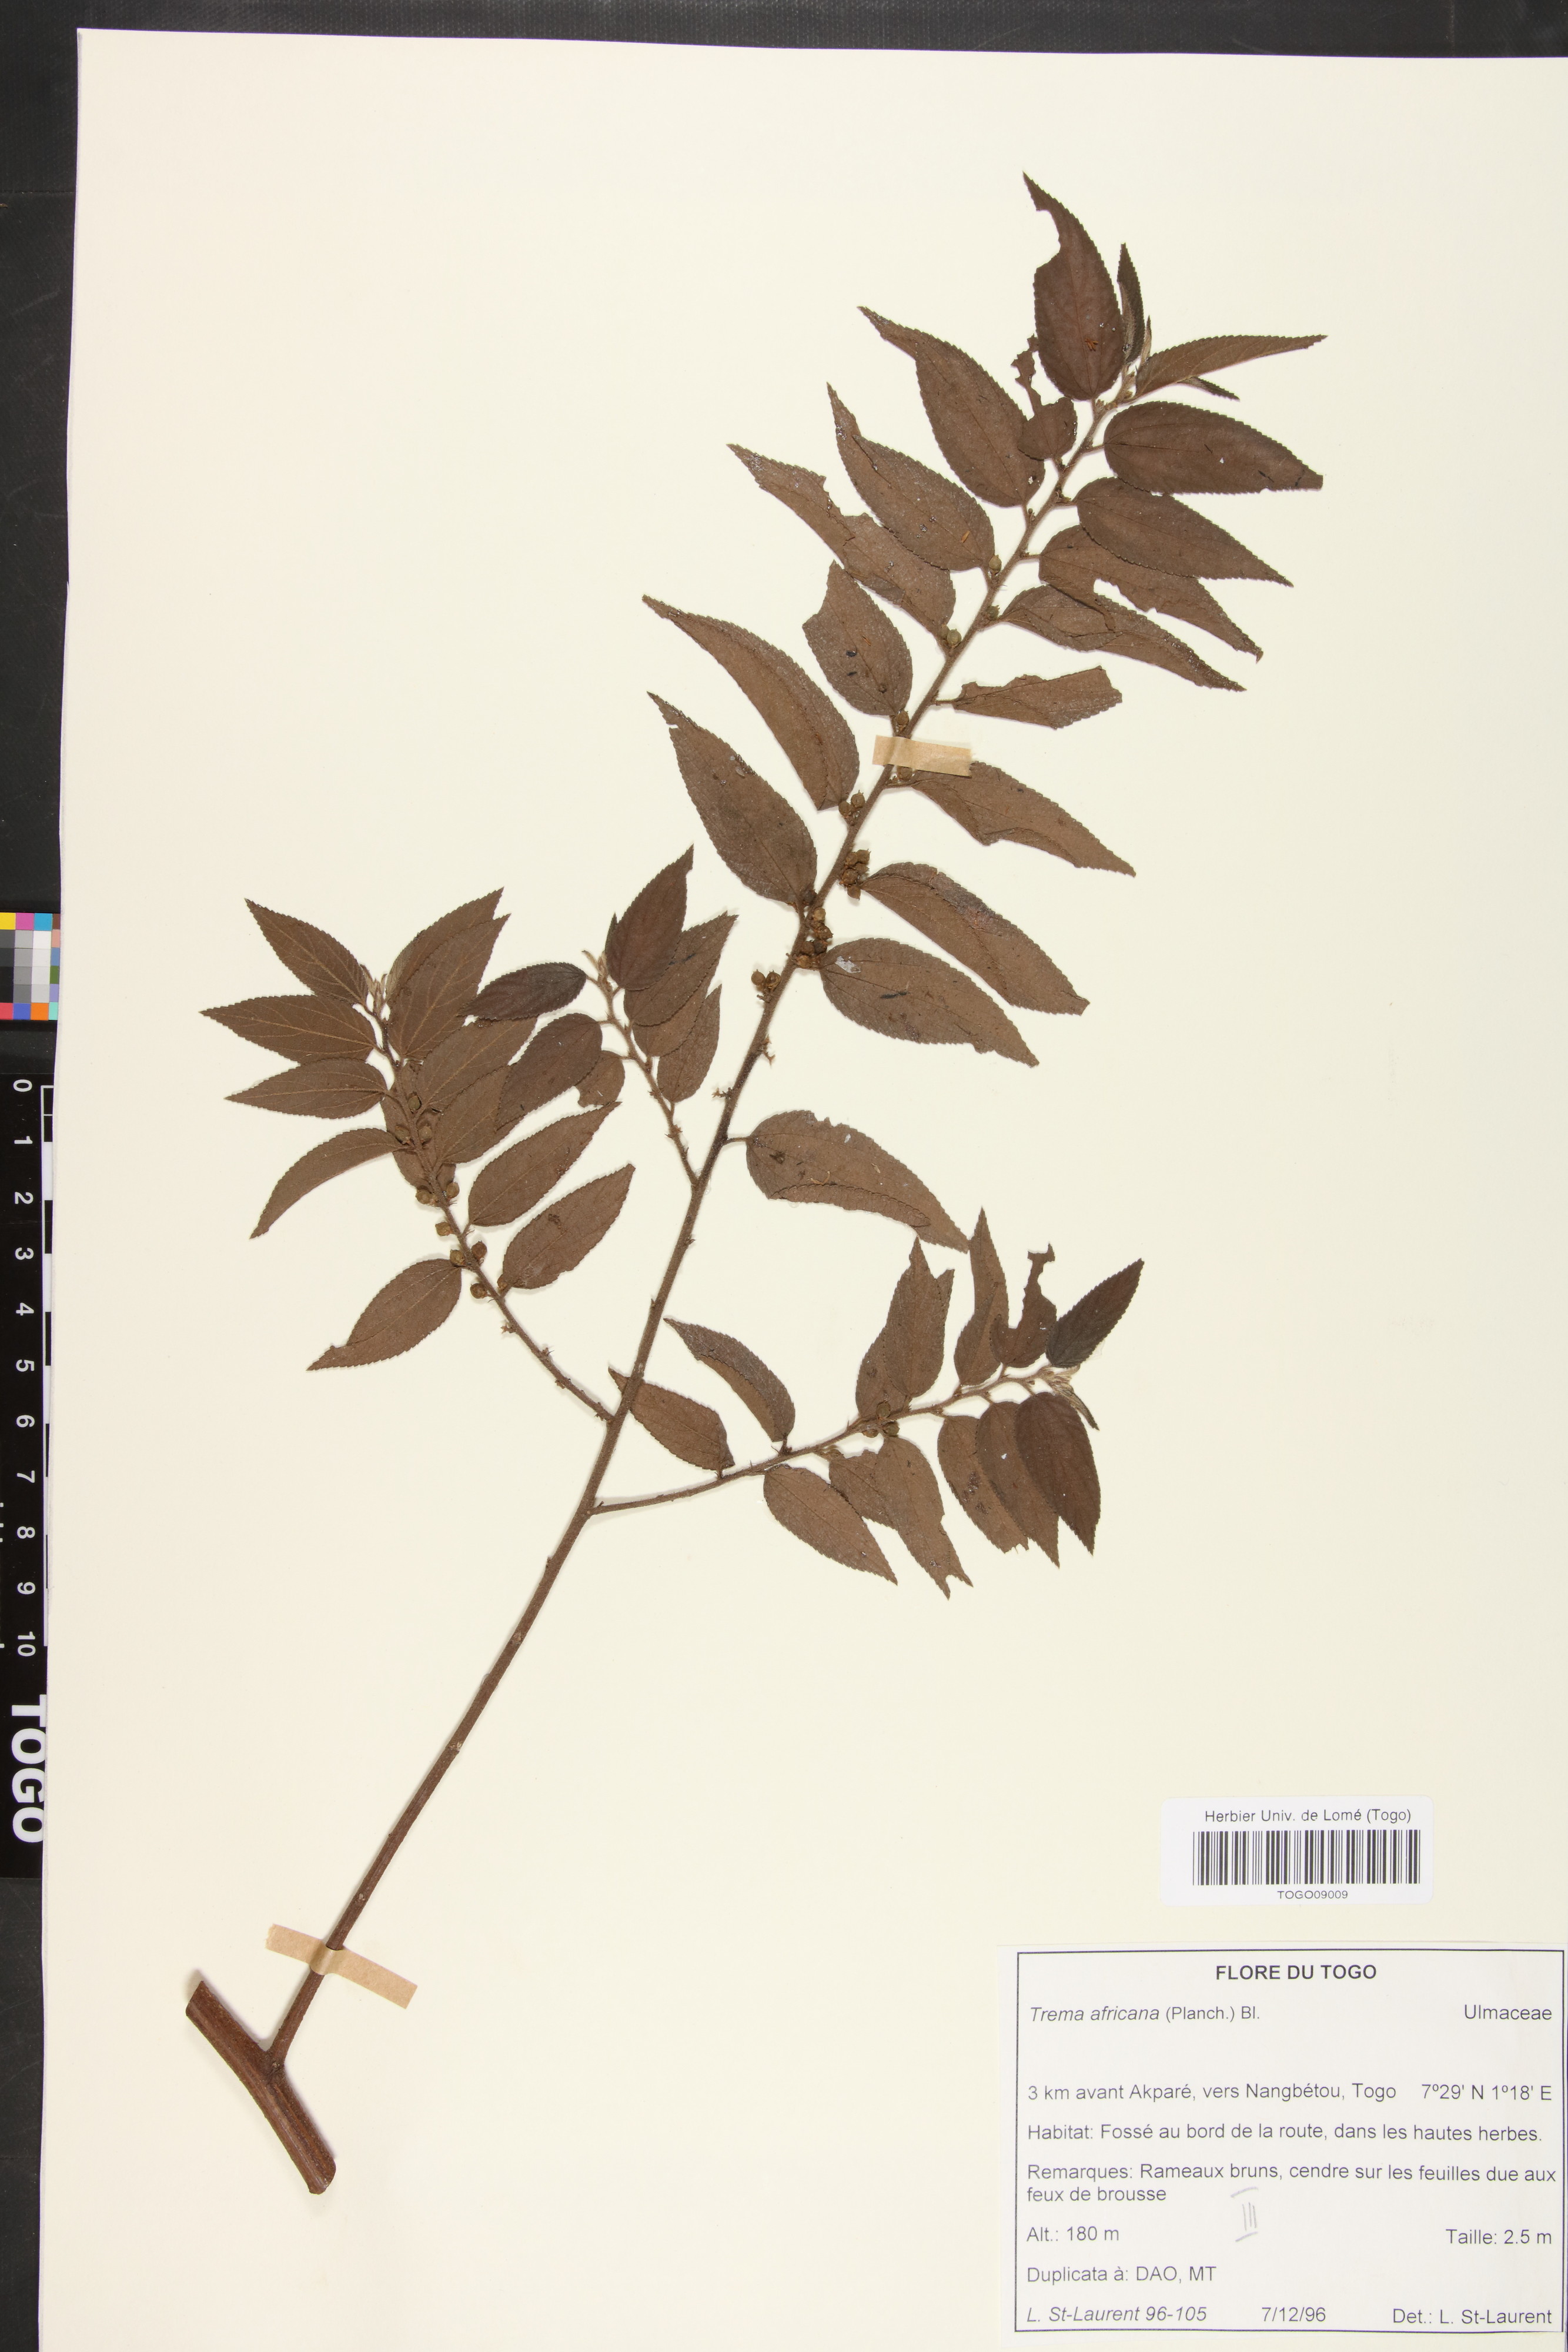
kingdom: Plantae
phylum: Tracheophyta
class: Magnoliopsida
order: Rosales
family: Cannabaceae
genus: Trema
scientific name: Trema orientale
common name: Indian charcoal tree
